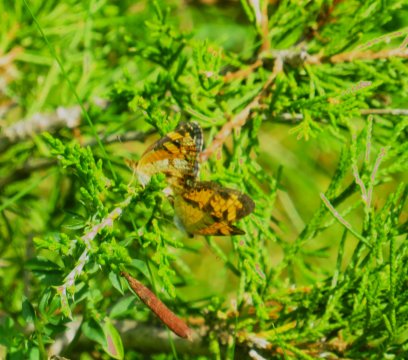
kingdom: Animalia
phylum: Arthropoda
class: Insecta
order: Lepidoptera
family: Nymphalidae
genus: Phyciodes
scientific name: Phyciodes tharos
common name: Pearl Crescent
